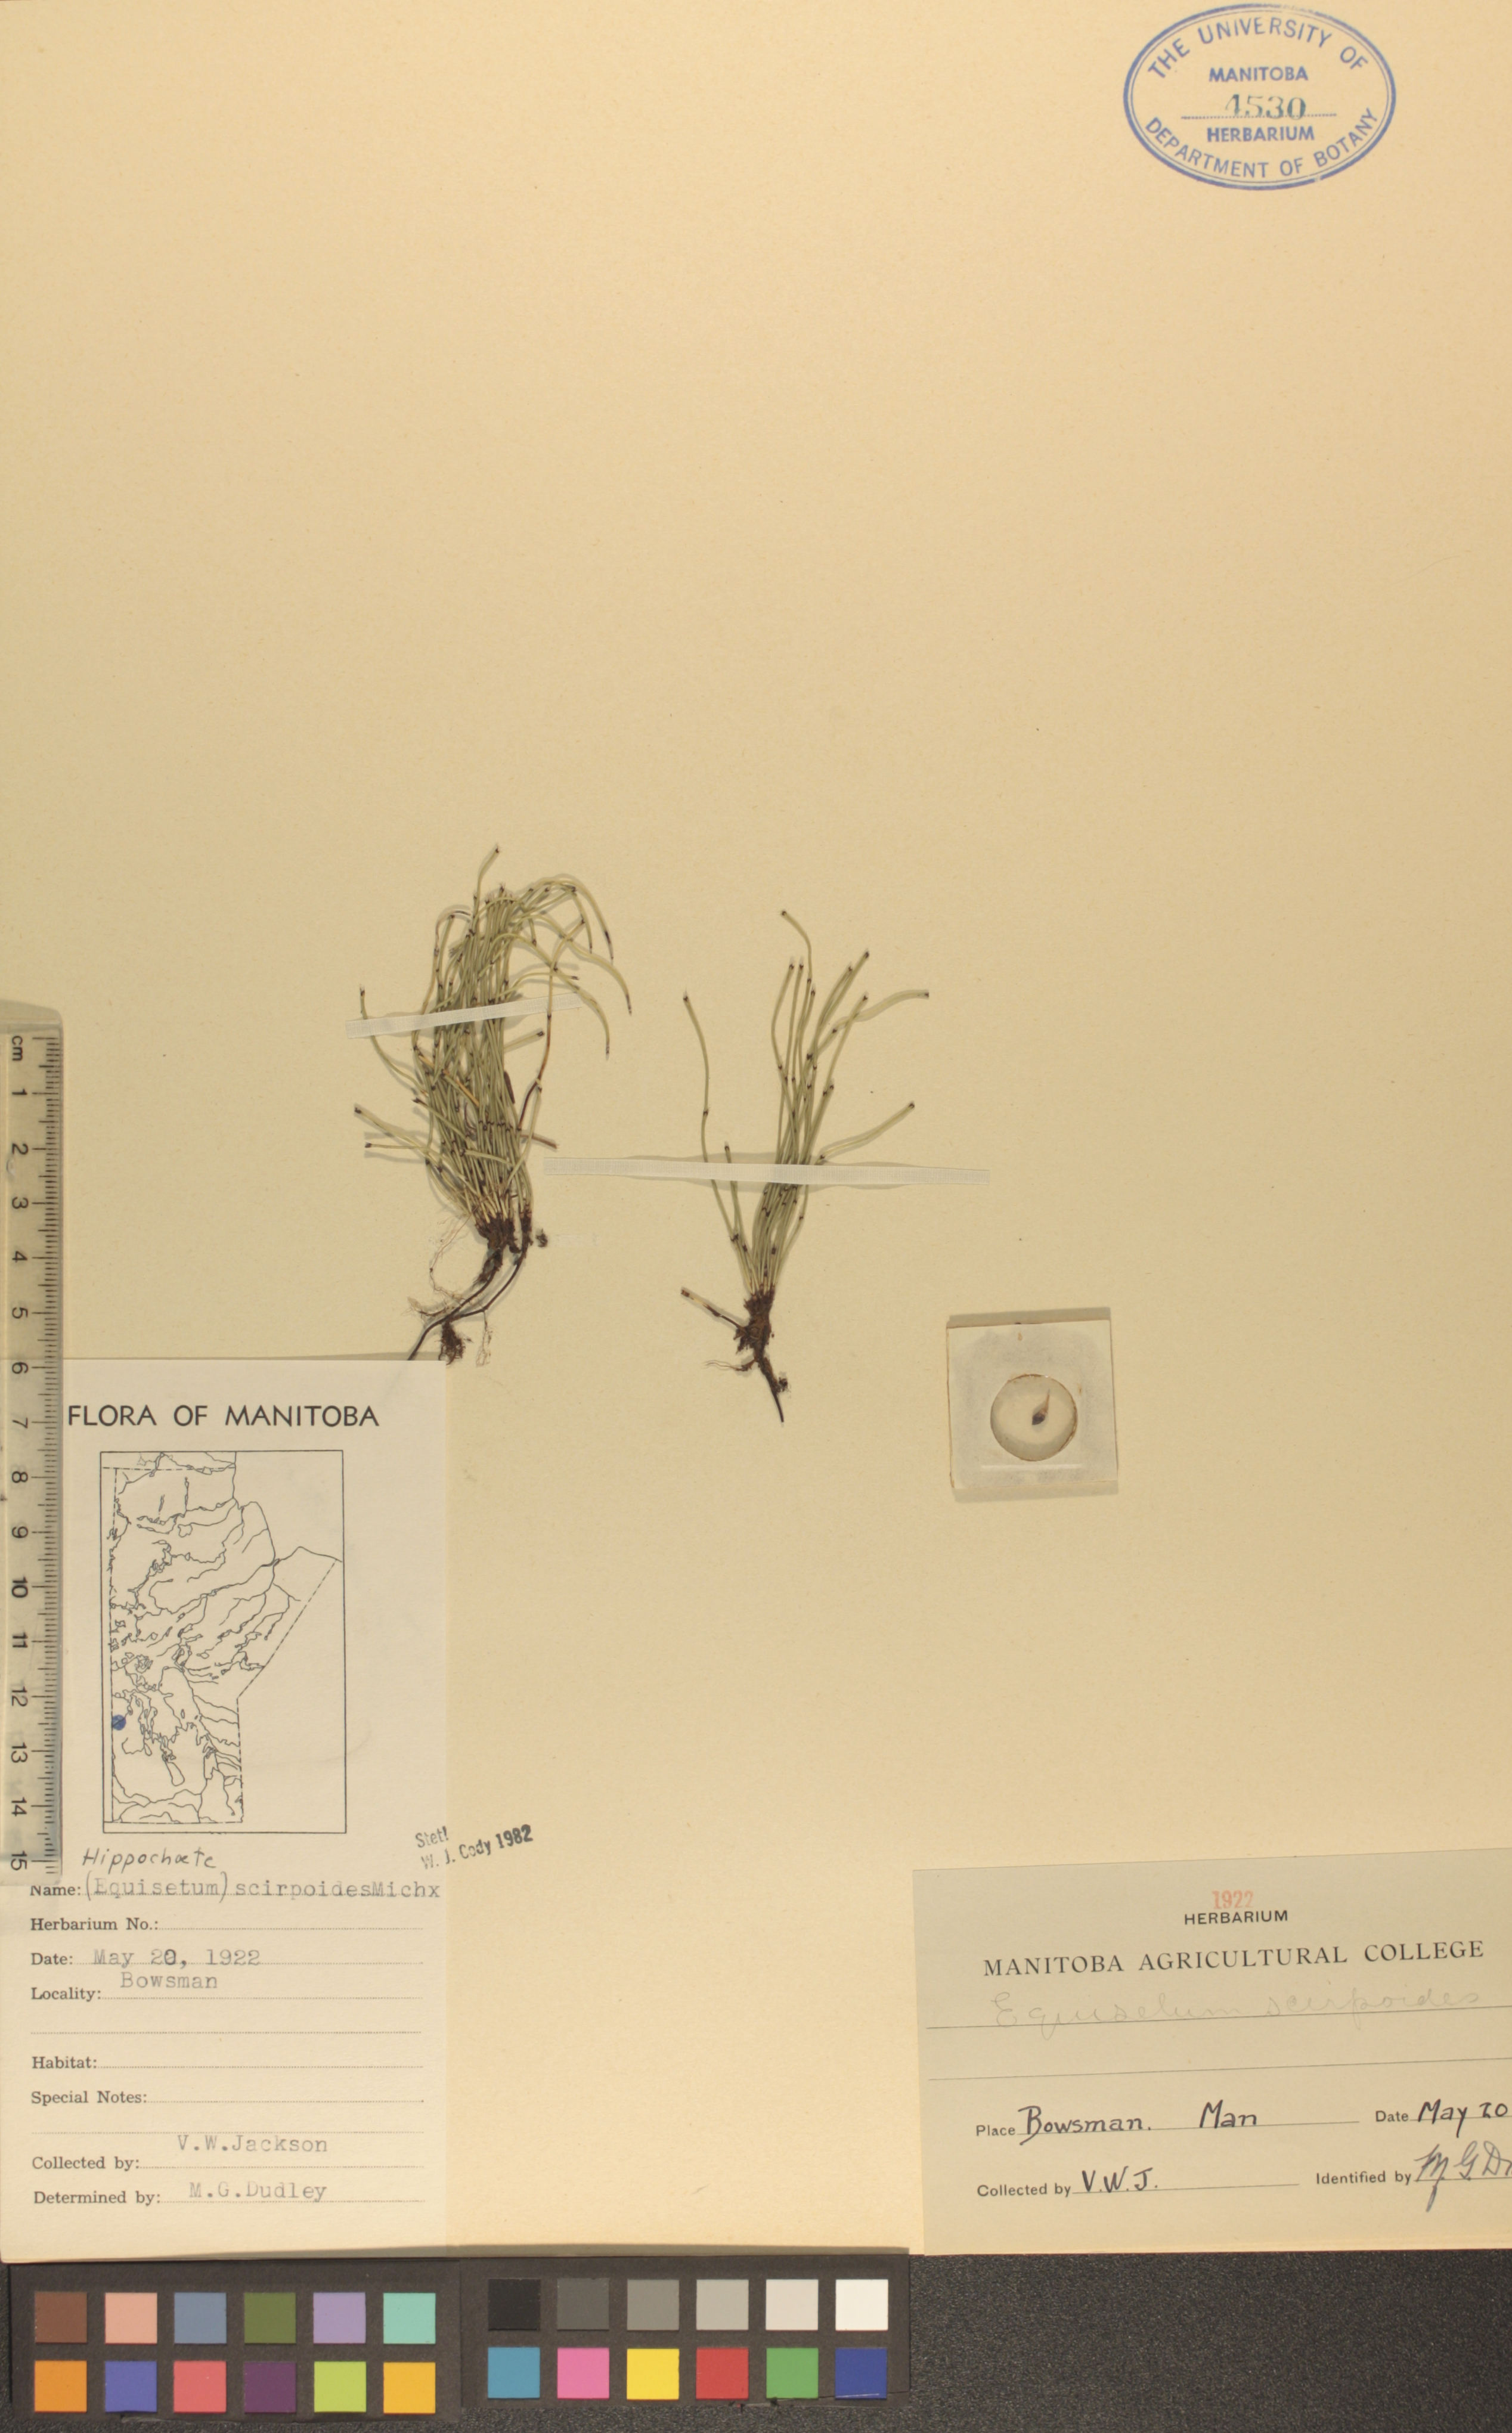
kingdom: Plantae
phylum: Tracheophyta
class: Polypodiopsida
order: Equisetales
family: Equisetaceae
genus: Equisetum
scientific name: Equisetum scirpoides
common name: Delicate horsetail
